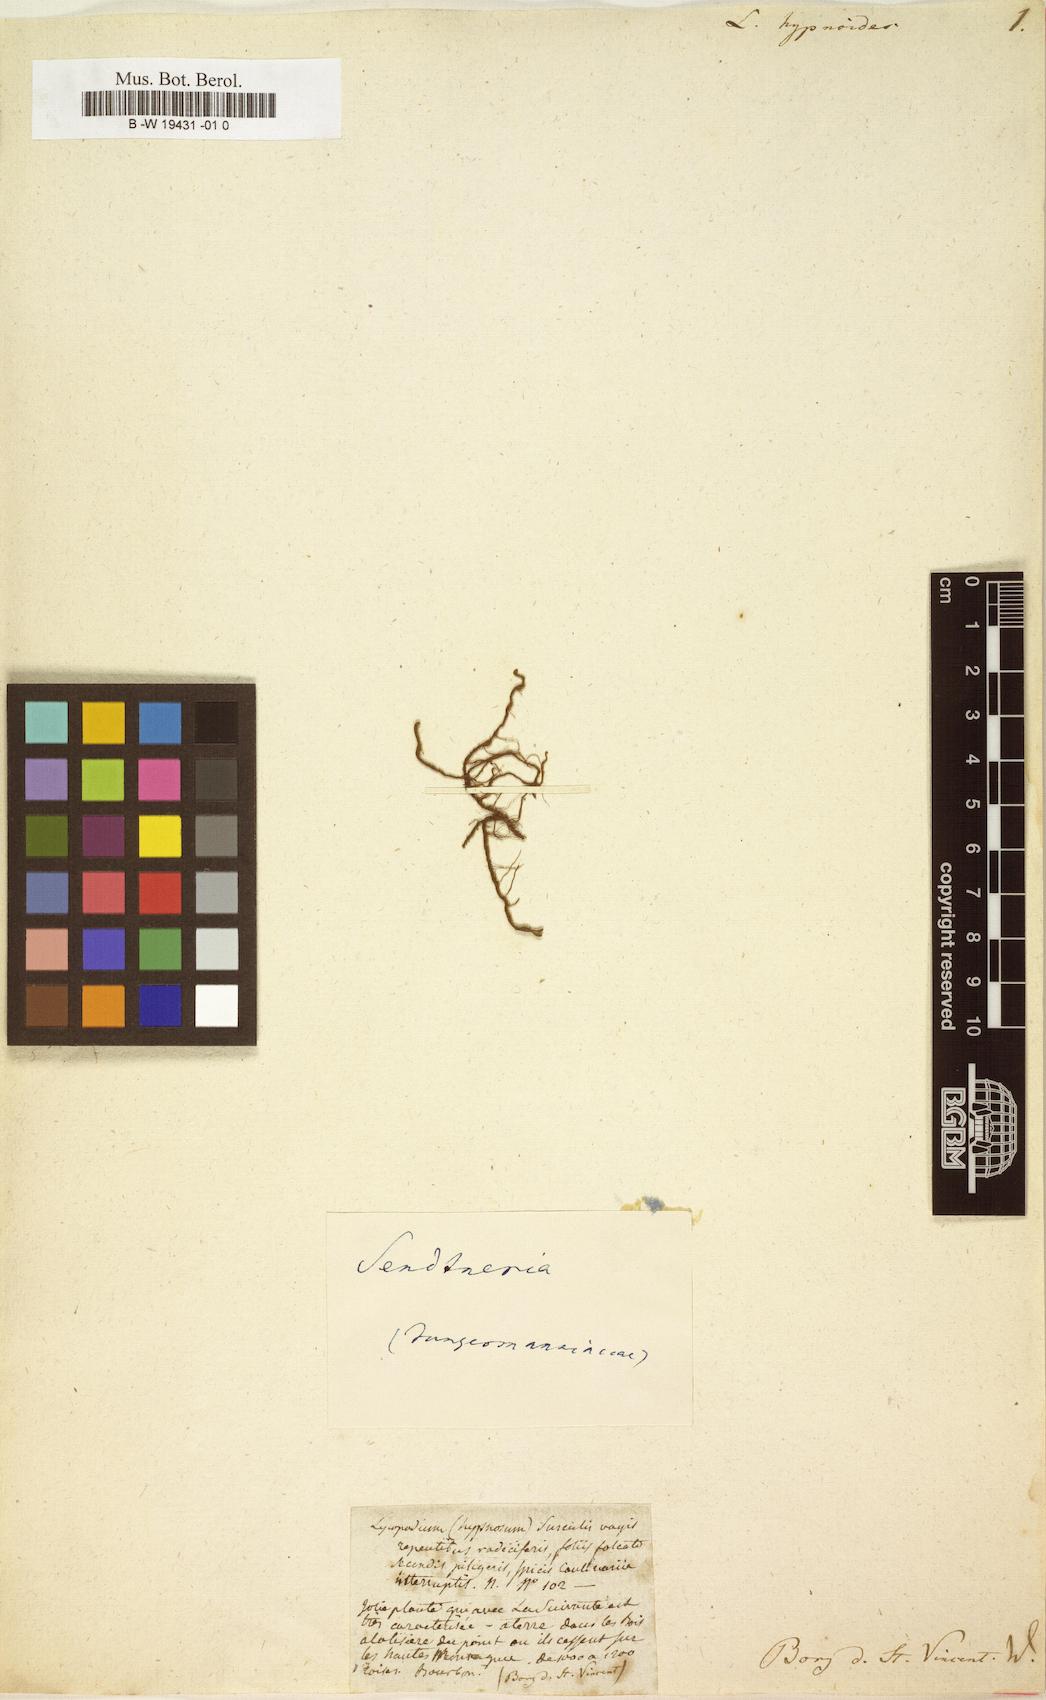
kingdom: Plantae
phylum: Tracheophyta
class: Lycopodiopsida
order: Selaginellales
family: Selaginellaceae
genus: Selaginella
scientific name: Selaginella chrysocaulos
